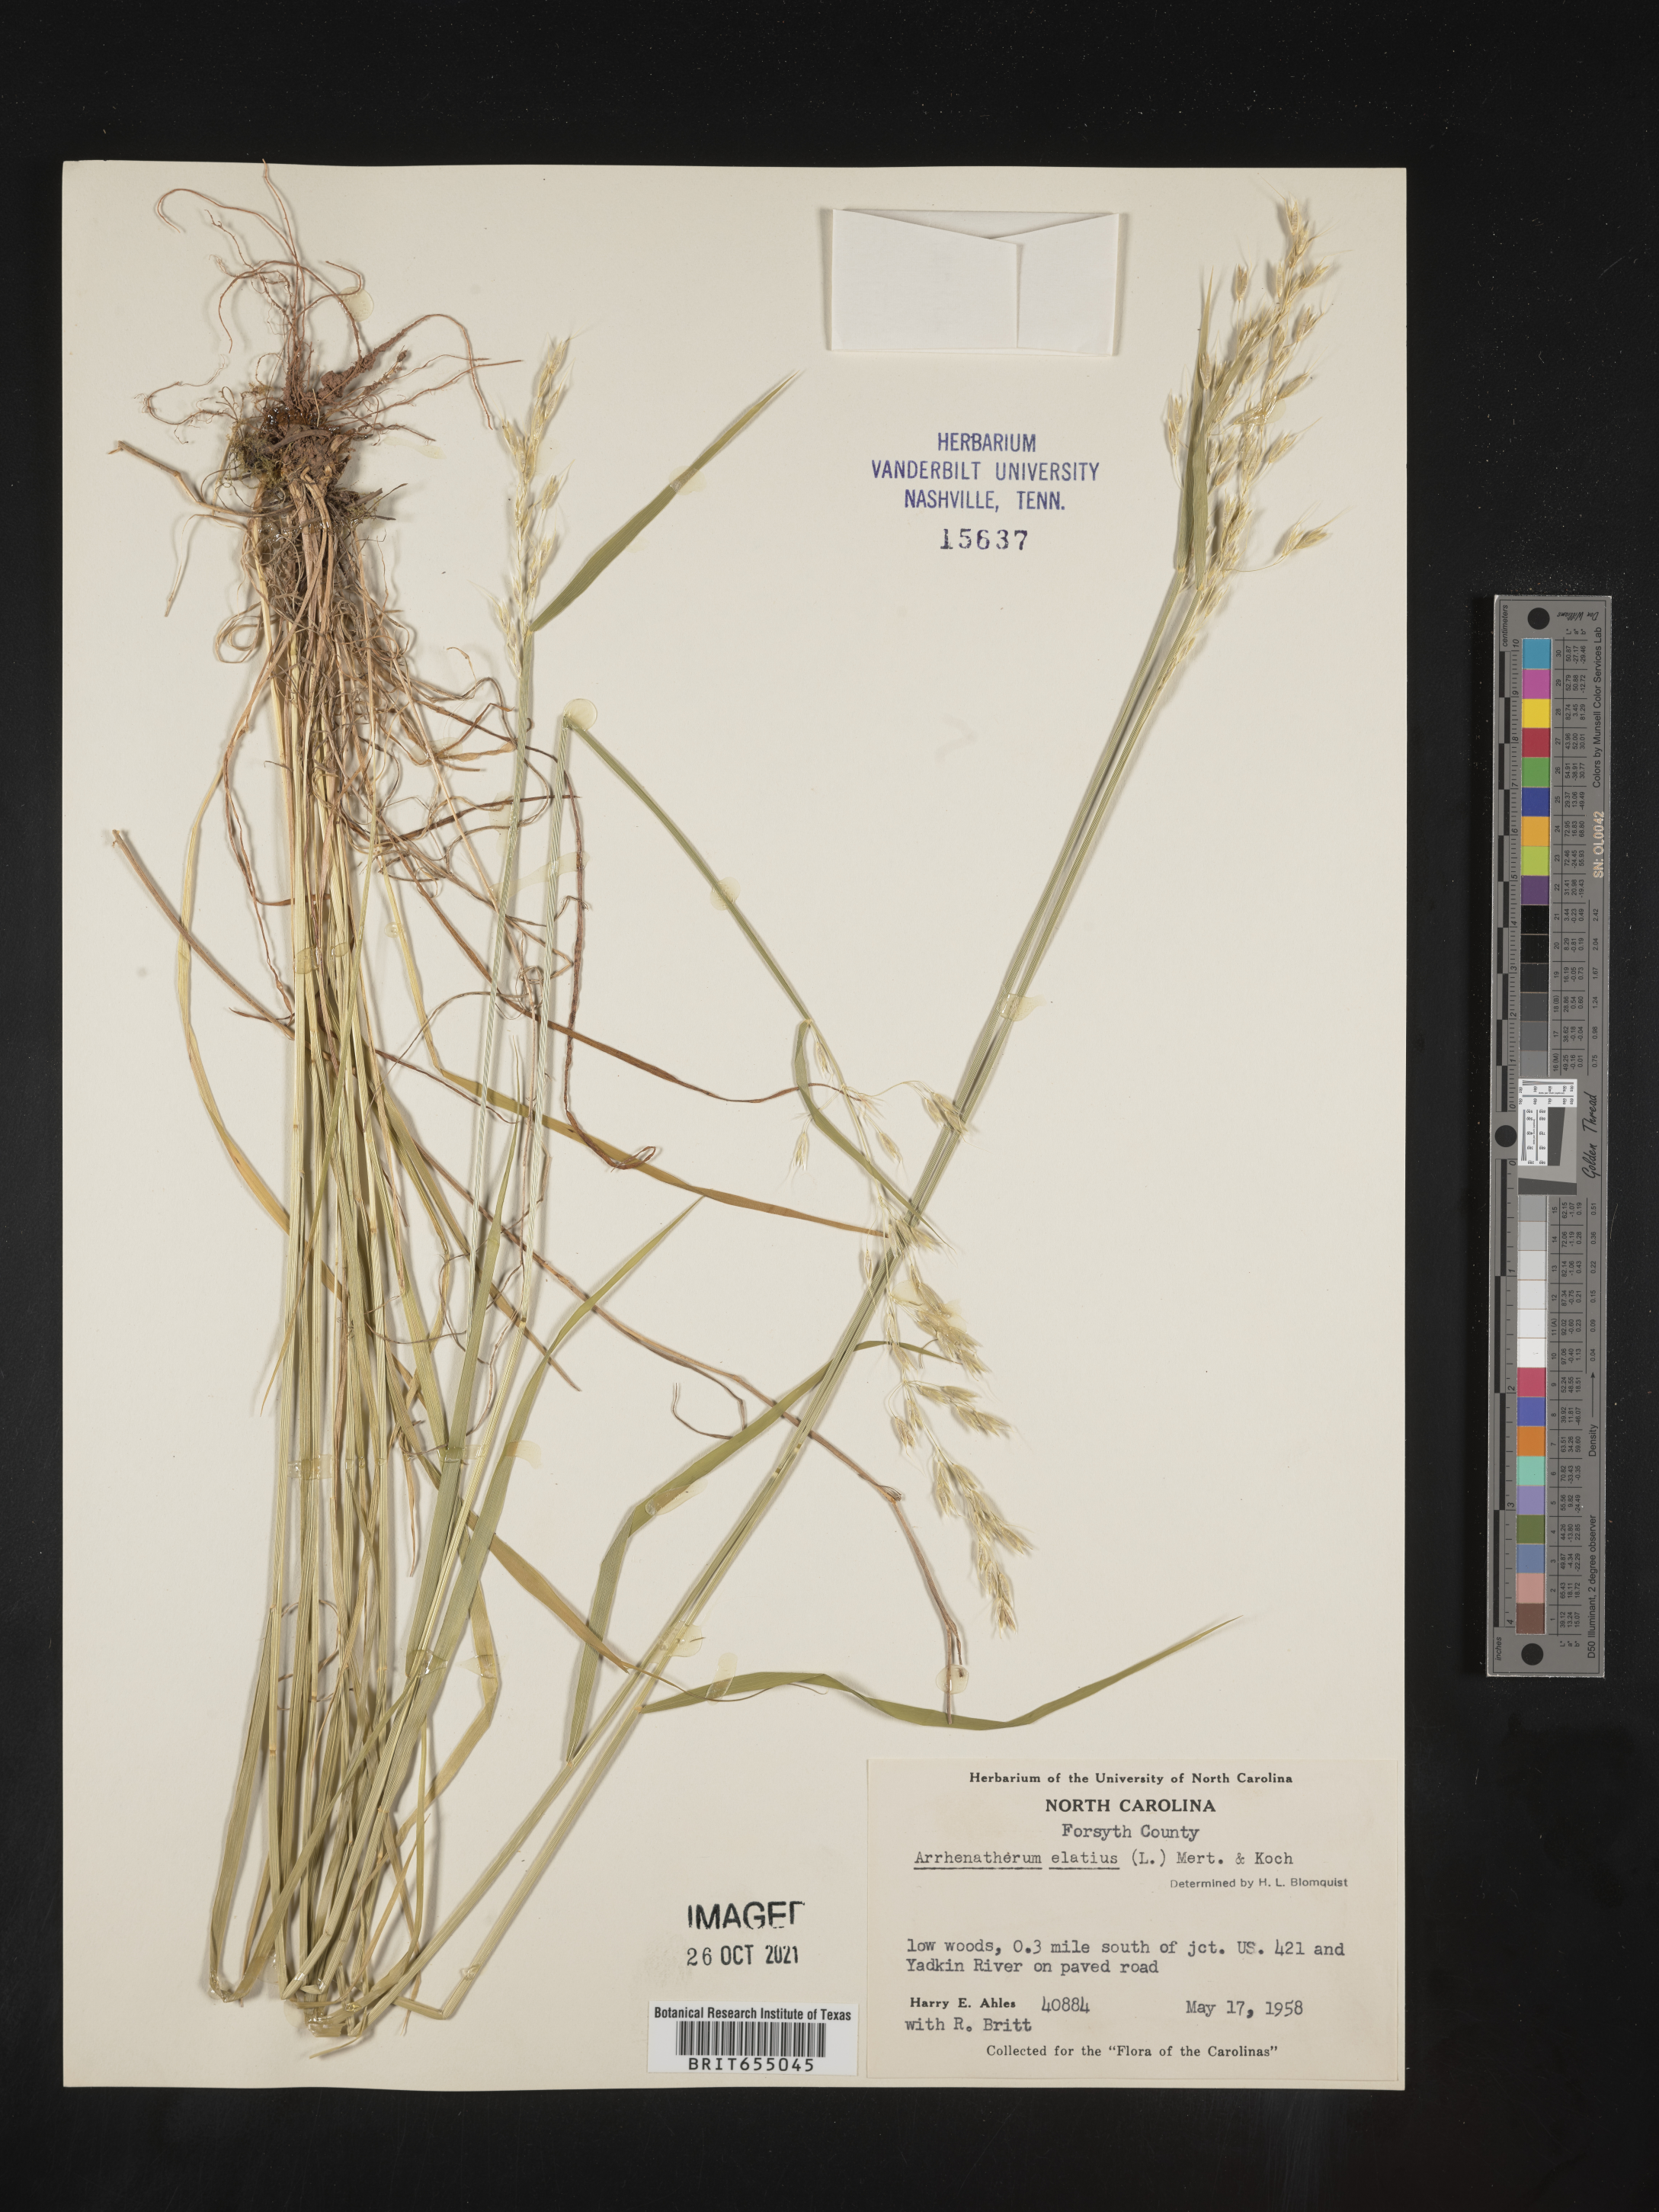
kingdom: Plantae
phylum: Tracheophyta
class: Liliopsida
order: Poales
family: Poaceae
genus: Arrhenatherum
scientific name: Arrhenatherum
